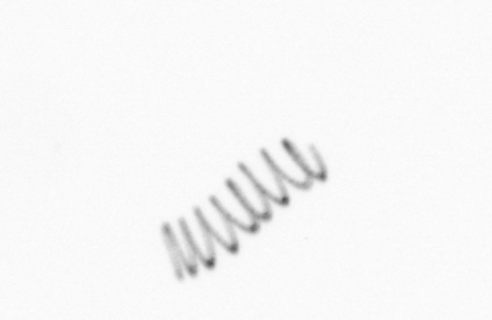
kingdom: Chromista
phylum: Ochrophyta
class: Bacillariophyceae
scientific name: Bacillariophyceae
